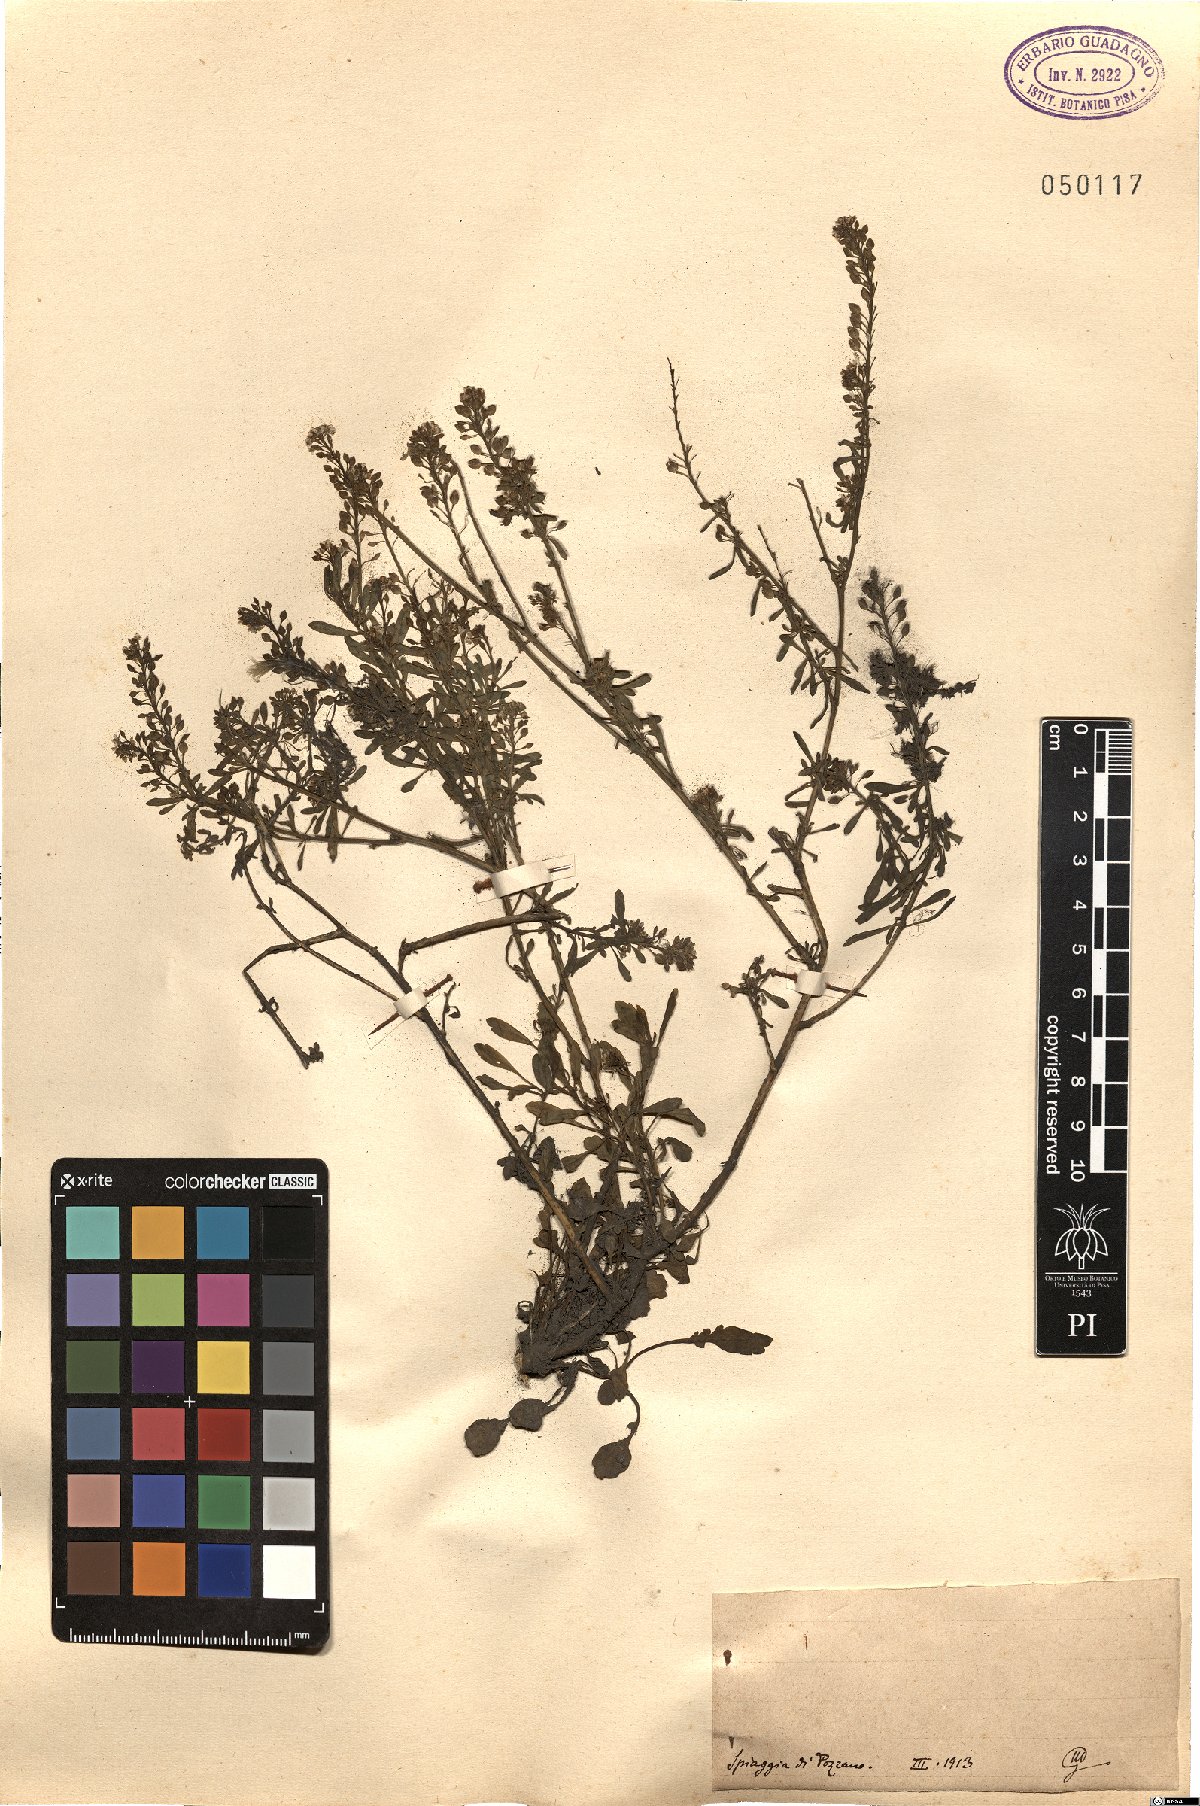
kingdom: Plantae
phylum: Tracheophyta
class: Magnoliopsida
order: Brassicales
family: Brassicaceae
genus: Lepidium
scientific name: Lepidium
